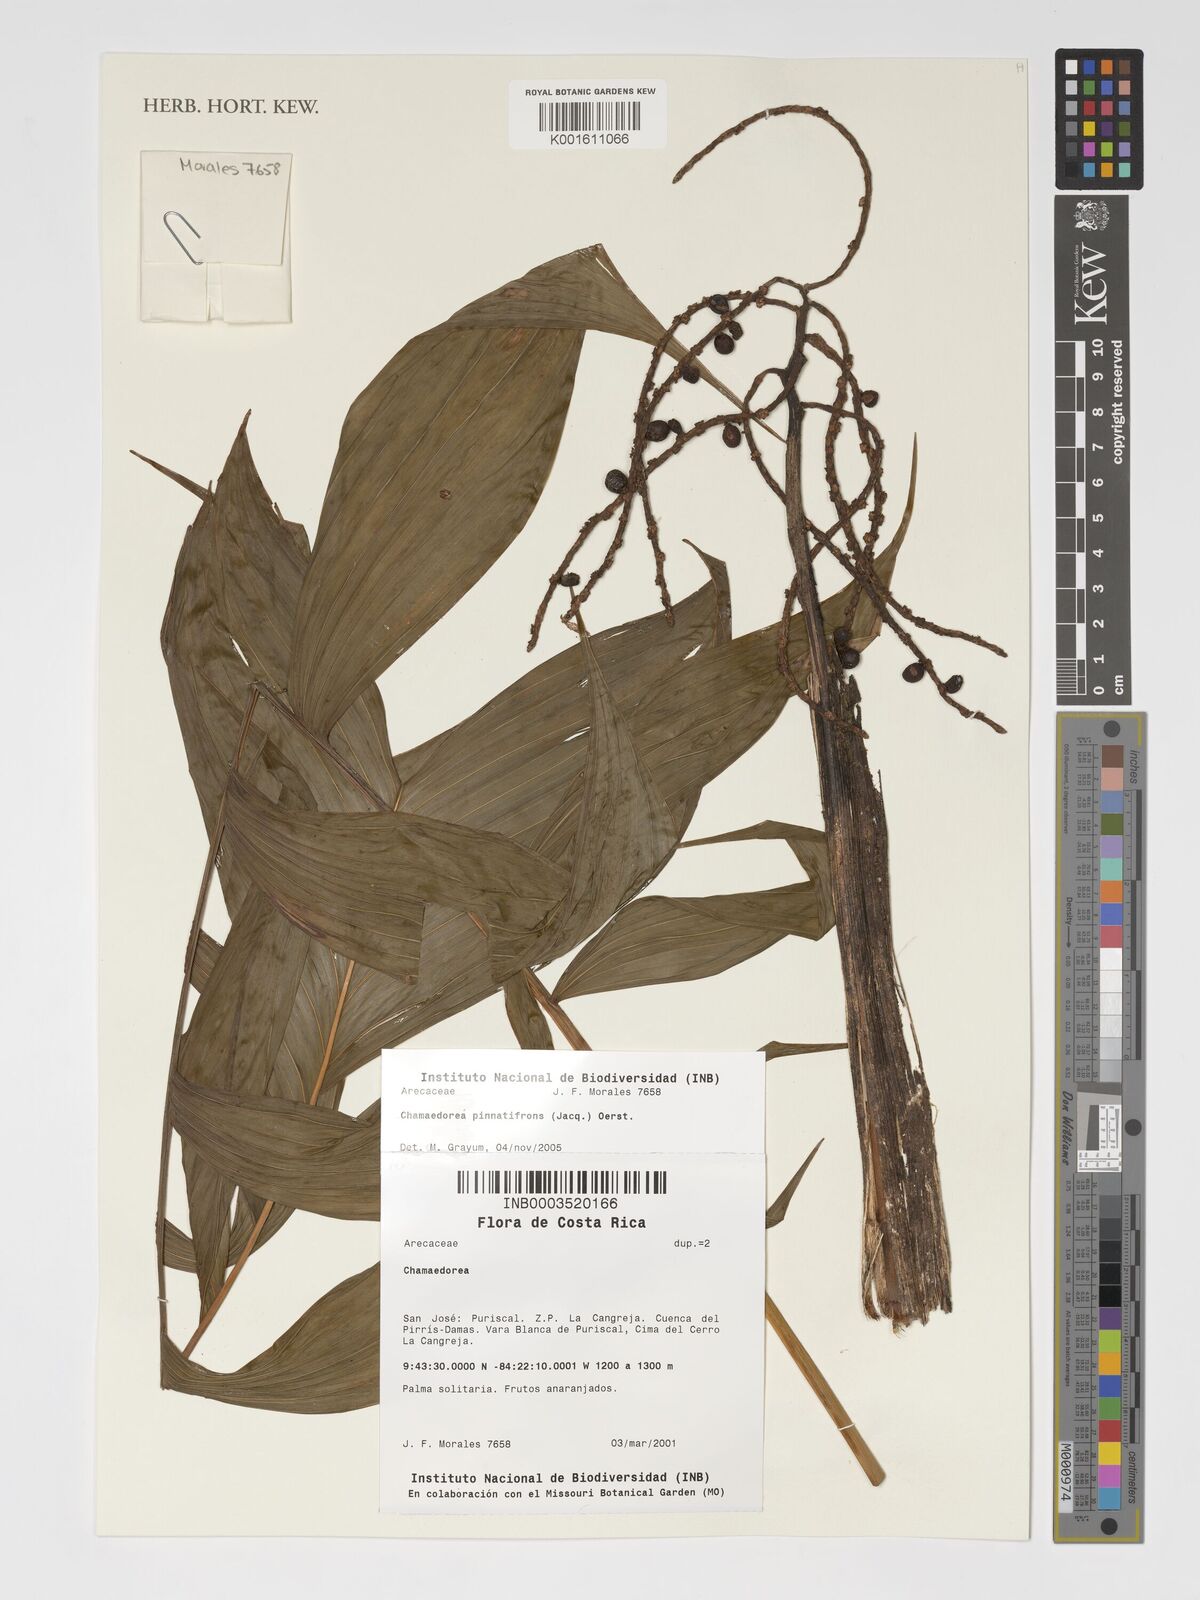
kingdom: Plantae
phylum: Tracheophyta
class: Liliopsida
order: Arecales
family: Arecaceae
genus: Chamaedorea
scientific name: Chamaedorea pinnatifrons
